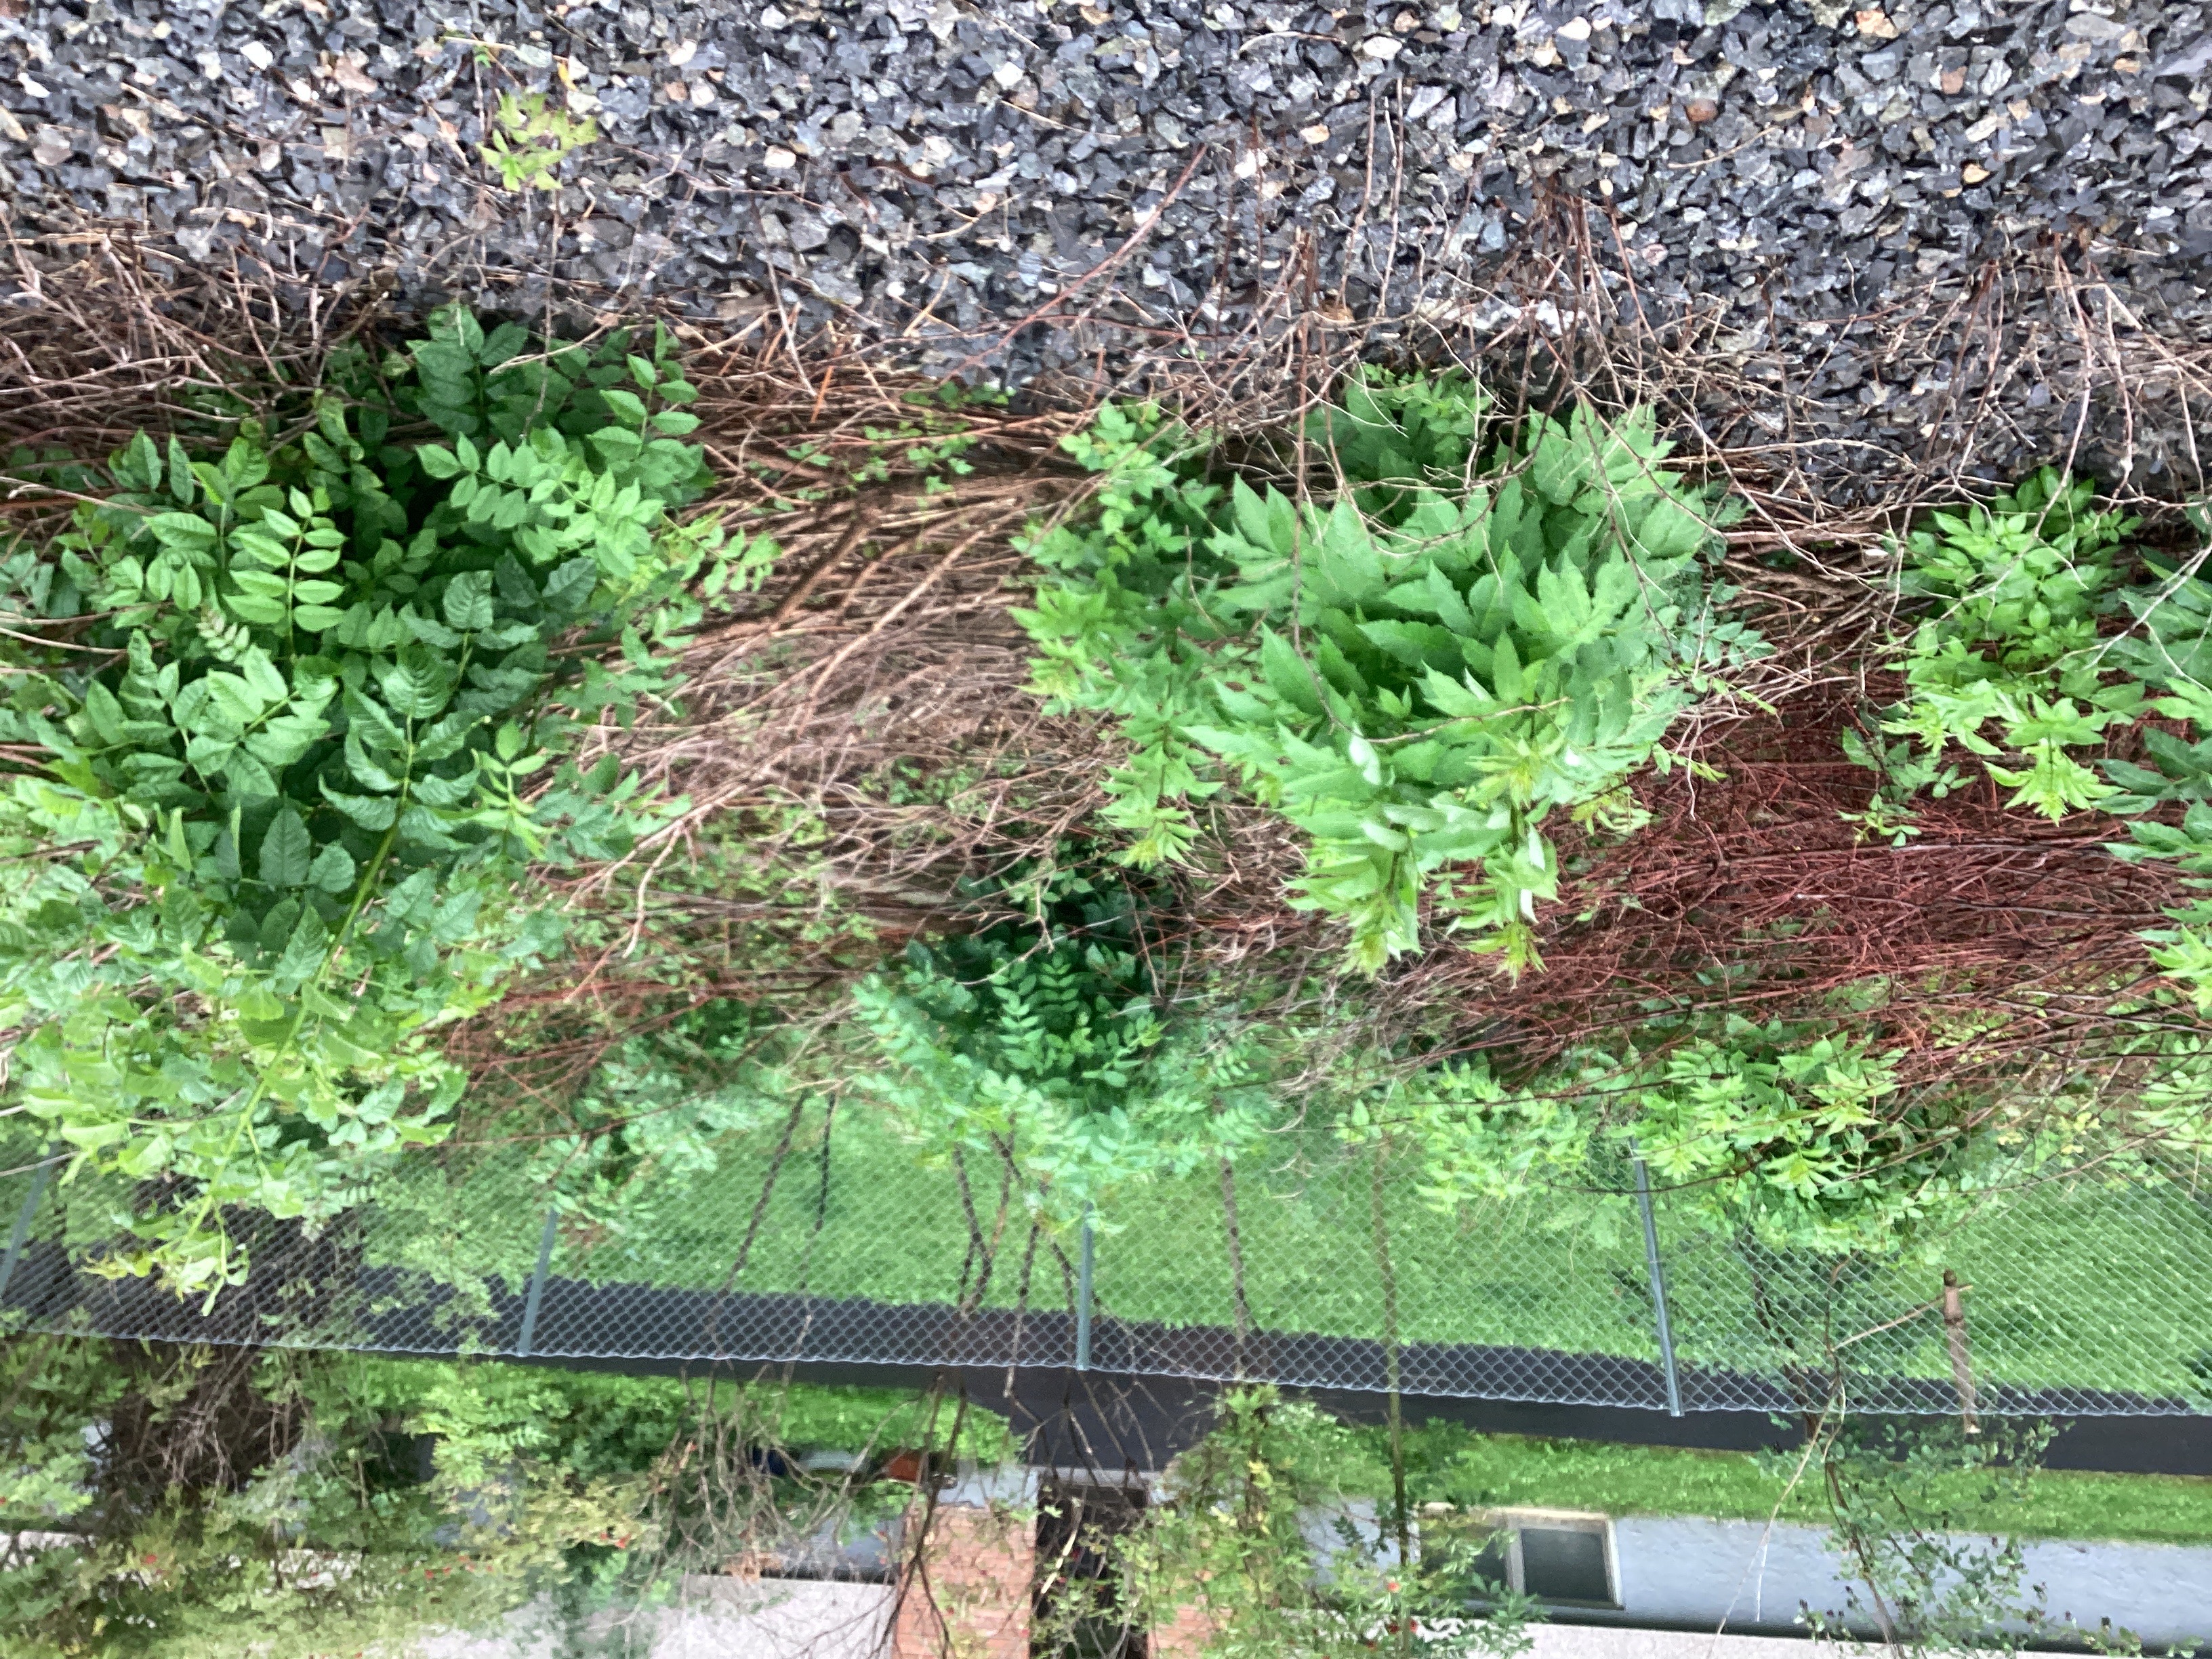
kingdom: Plantae
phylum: Tracheophyta
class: Magnoliopsida
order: Dipsacales
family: Viburnaceae
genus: Sambucus
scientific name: Sambucus racemosa
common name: rødhyll
